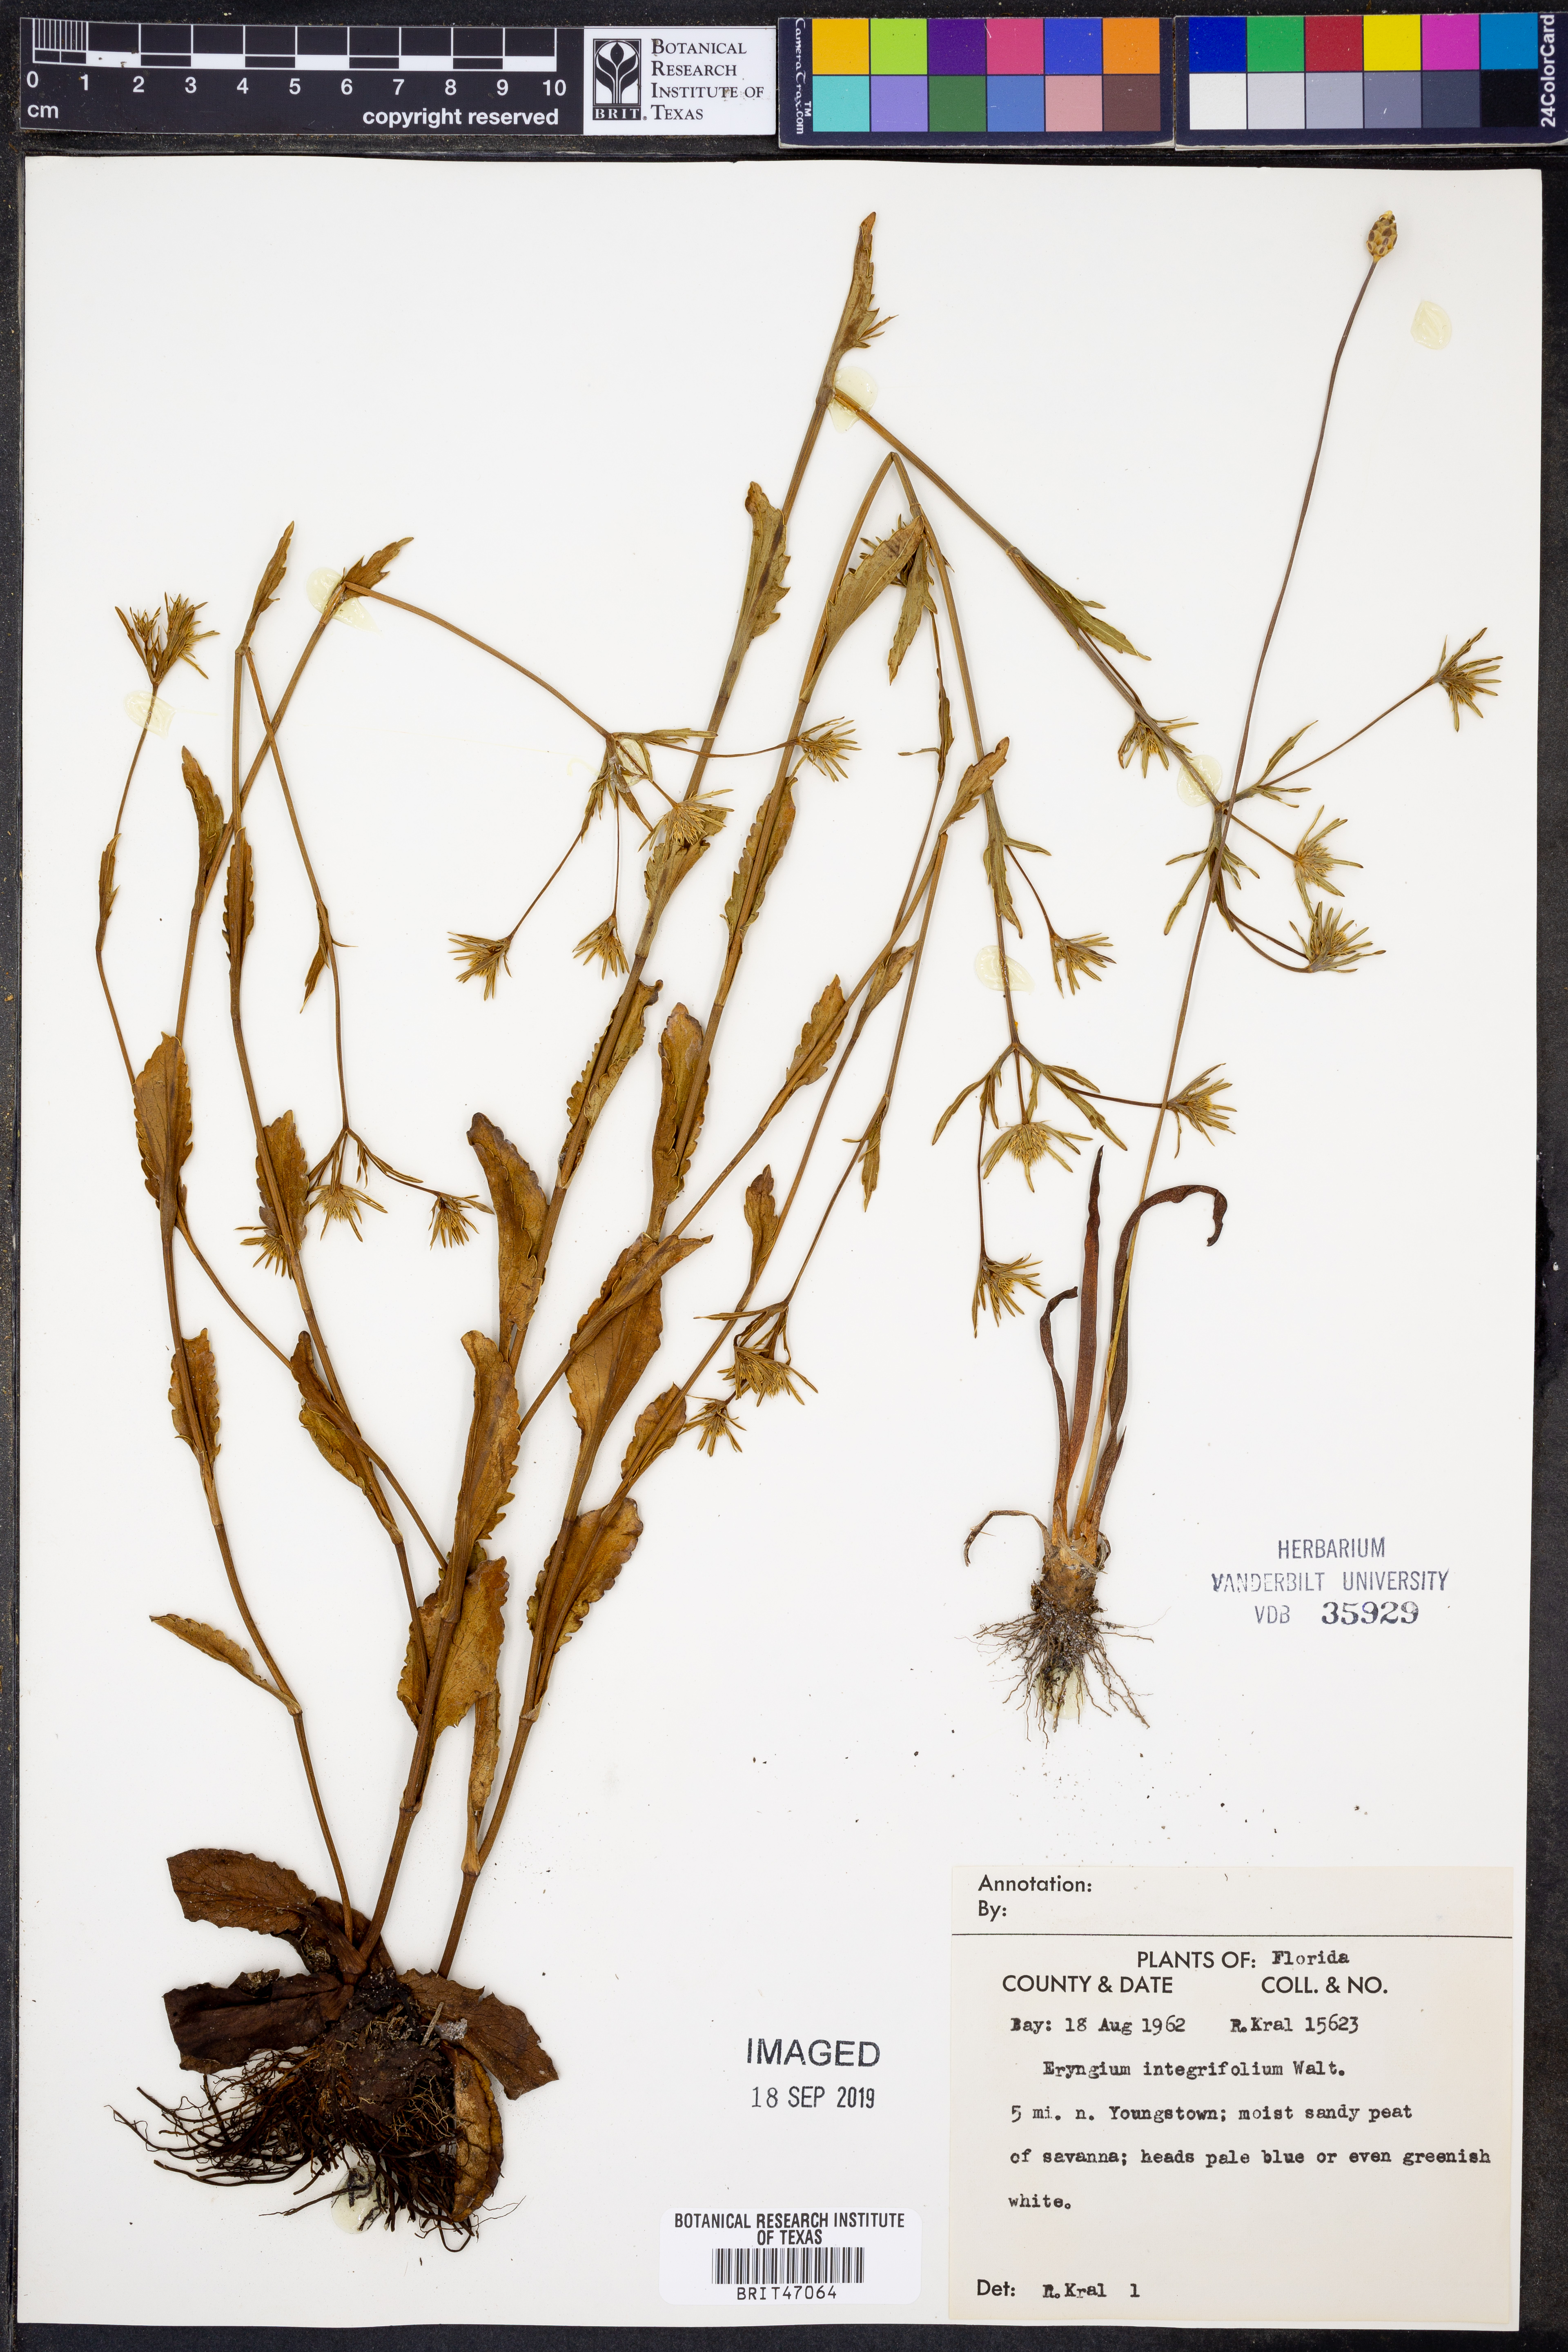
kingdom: Plantae
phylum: Tracheophyta
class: Magnoliopsida
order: Apiales
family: Apiaceae
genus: Eryngium
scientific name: Eryngium integrifolium
